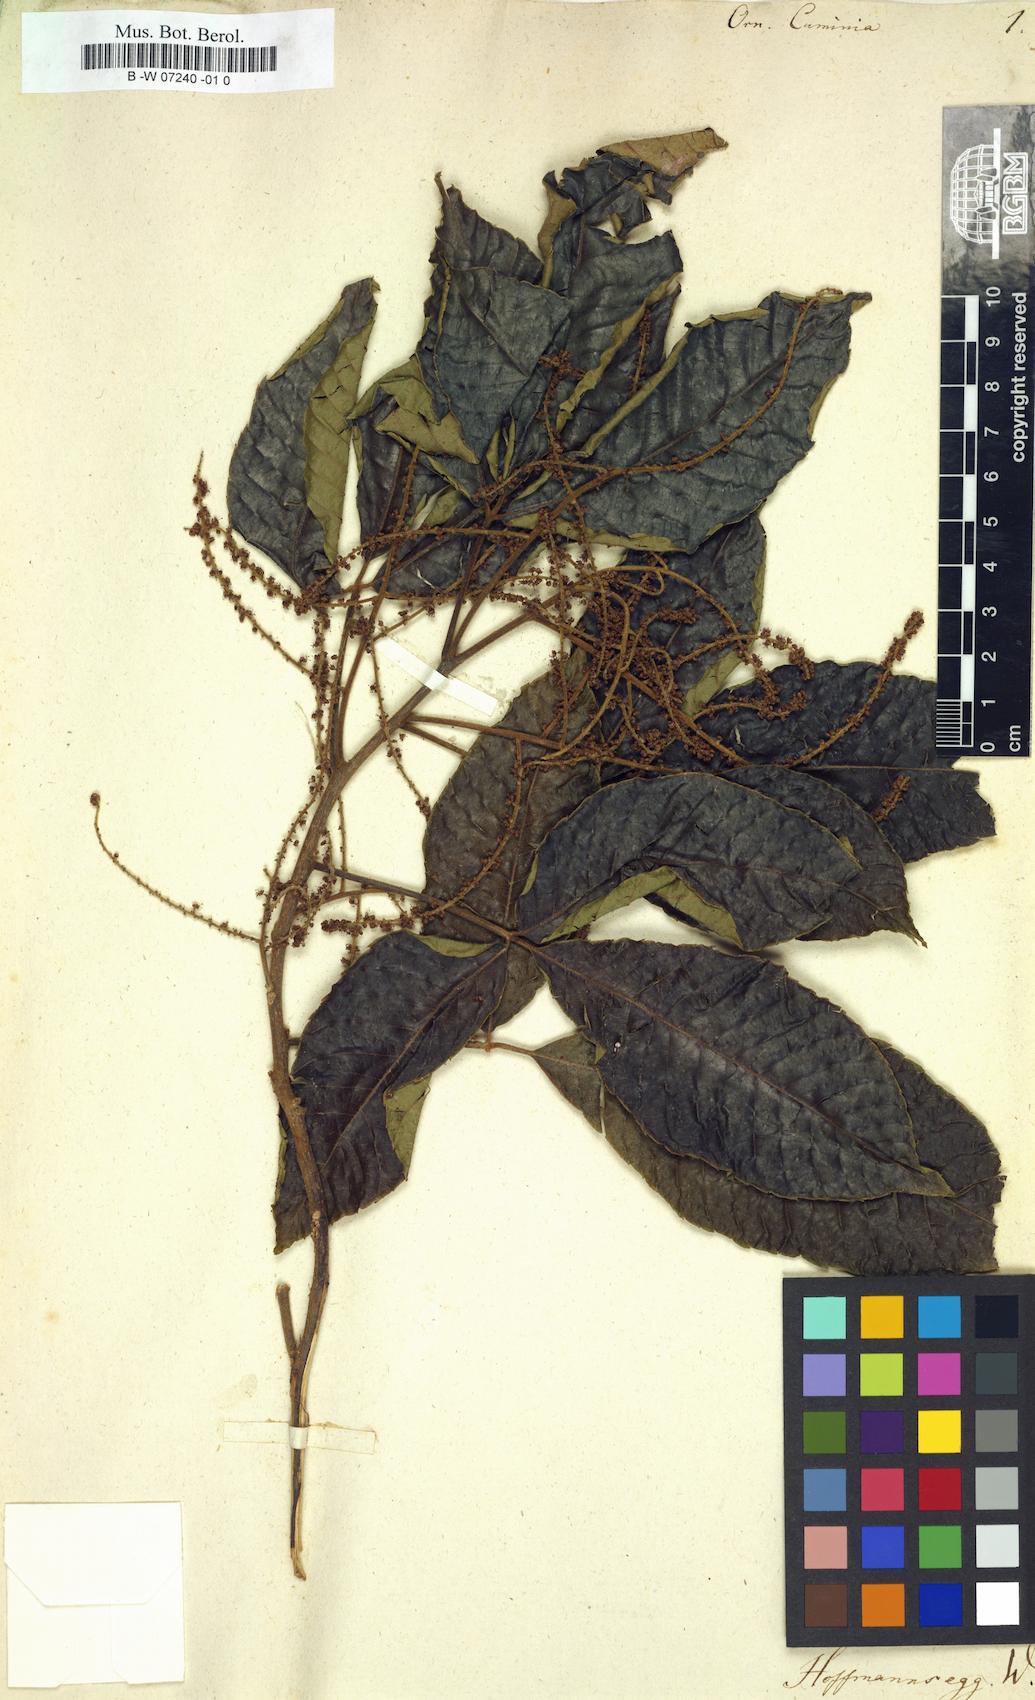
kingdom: Plantae
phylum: Tracheophyta
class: Magnoliopsida
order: Sapindales
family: Sapindaceae
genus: Allophylus
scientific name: Allophylus cominia
